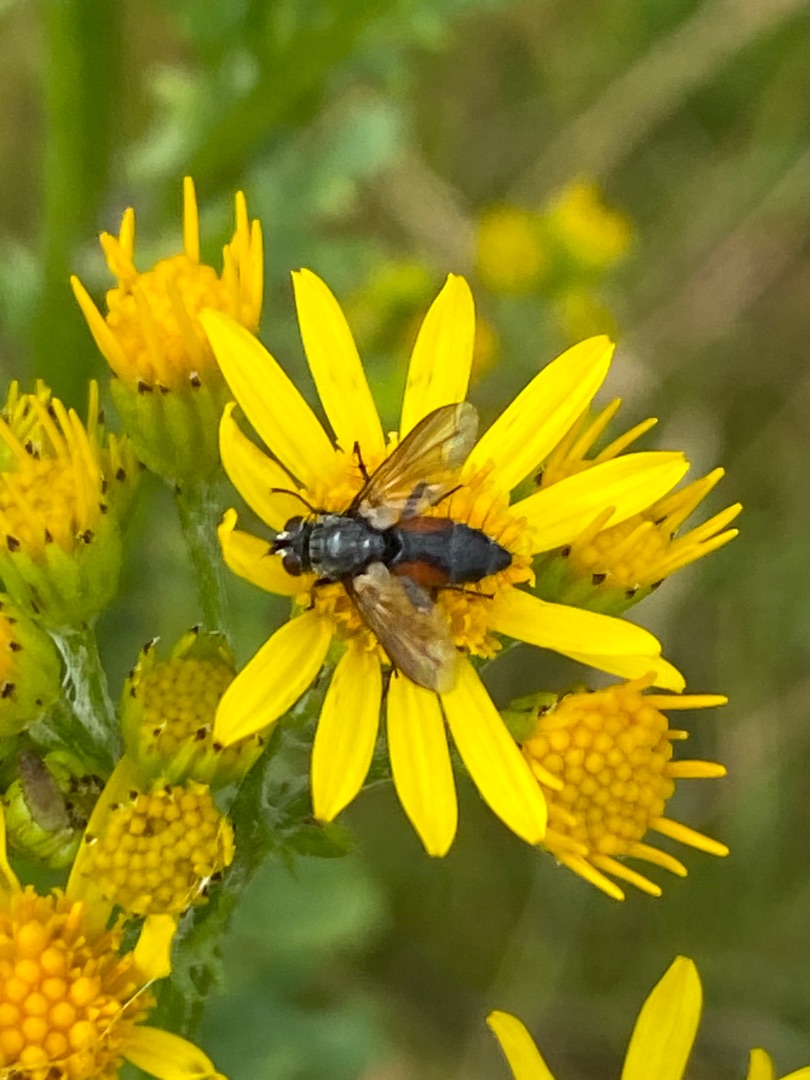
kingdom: Animalia
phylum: Arthropoda
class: Insecta
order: Diptera
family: Tachinidae
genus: Eriothrix
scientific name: Eriothrix rufomaculatus
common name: Rød snylteflue
